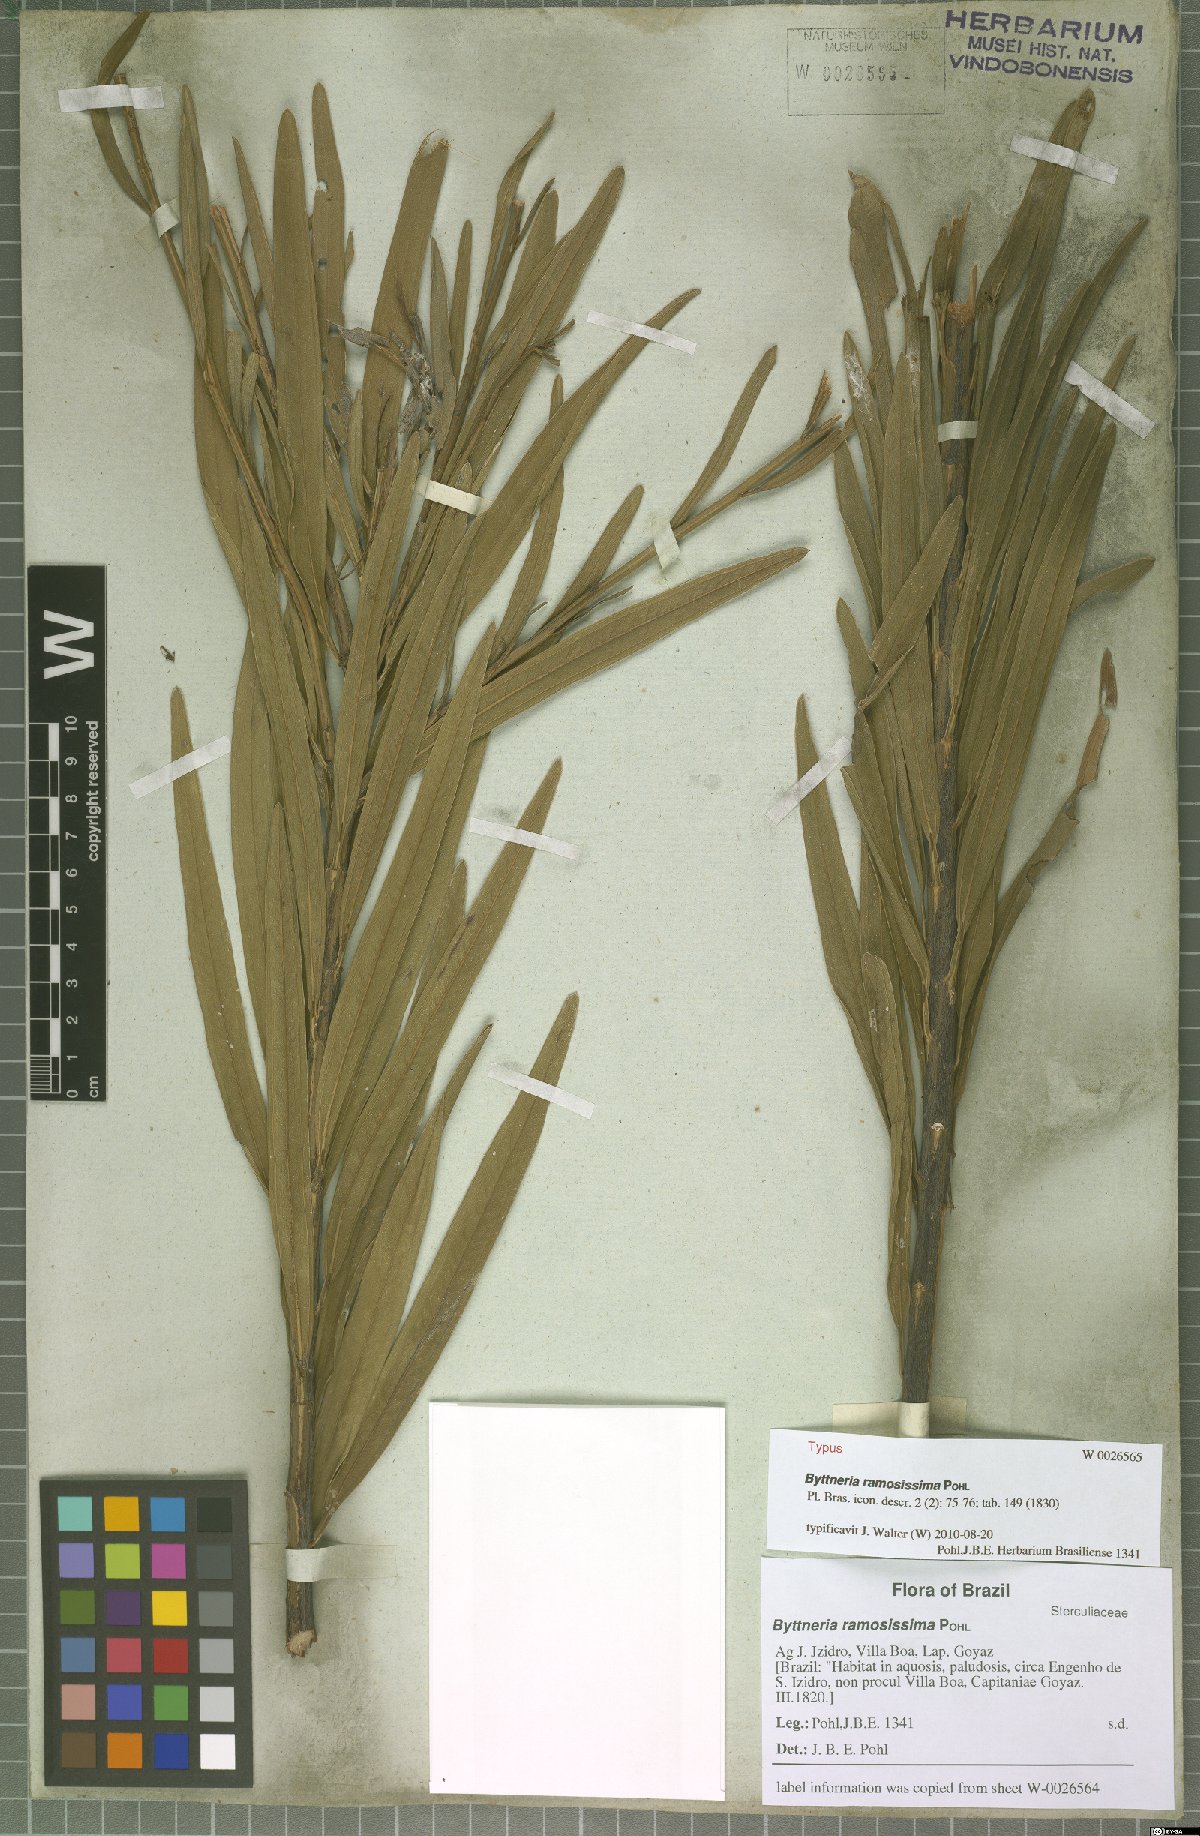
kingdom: Plantae
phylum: Tracheophyta
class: Magnoliopsida
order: Malvales
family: Malvaceae
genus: Byttneria
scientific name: Byttneria ramosissima
